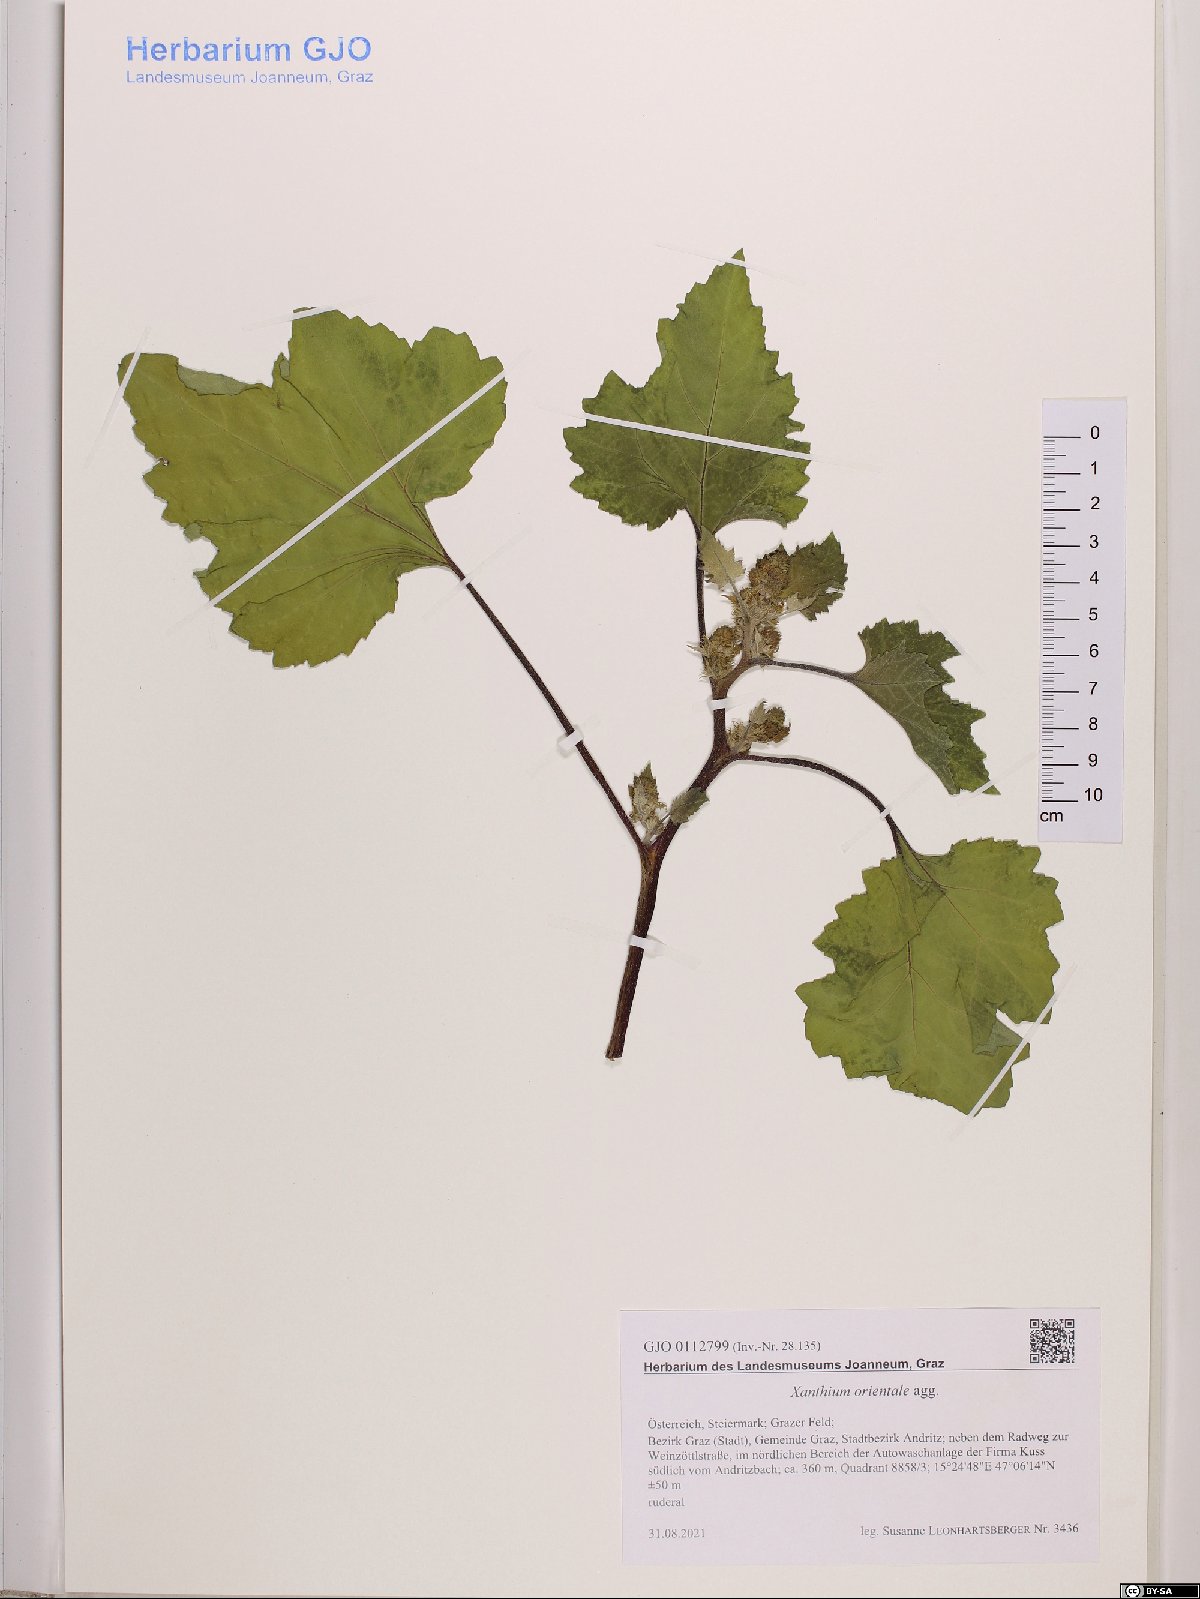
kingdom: Plantae
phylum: Tracheophyta
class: Magnoliopsida
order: Asterales
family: Asteraceae
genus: Xanthium
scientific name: Xanthium orientale
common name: Californian burr
